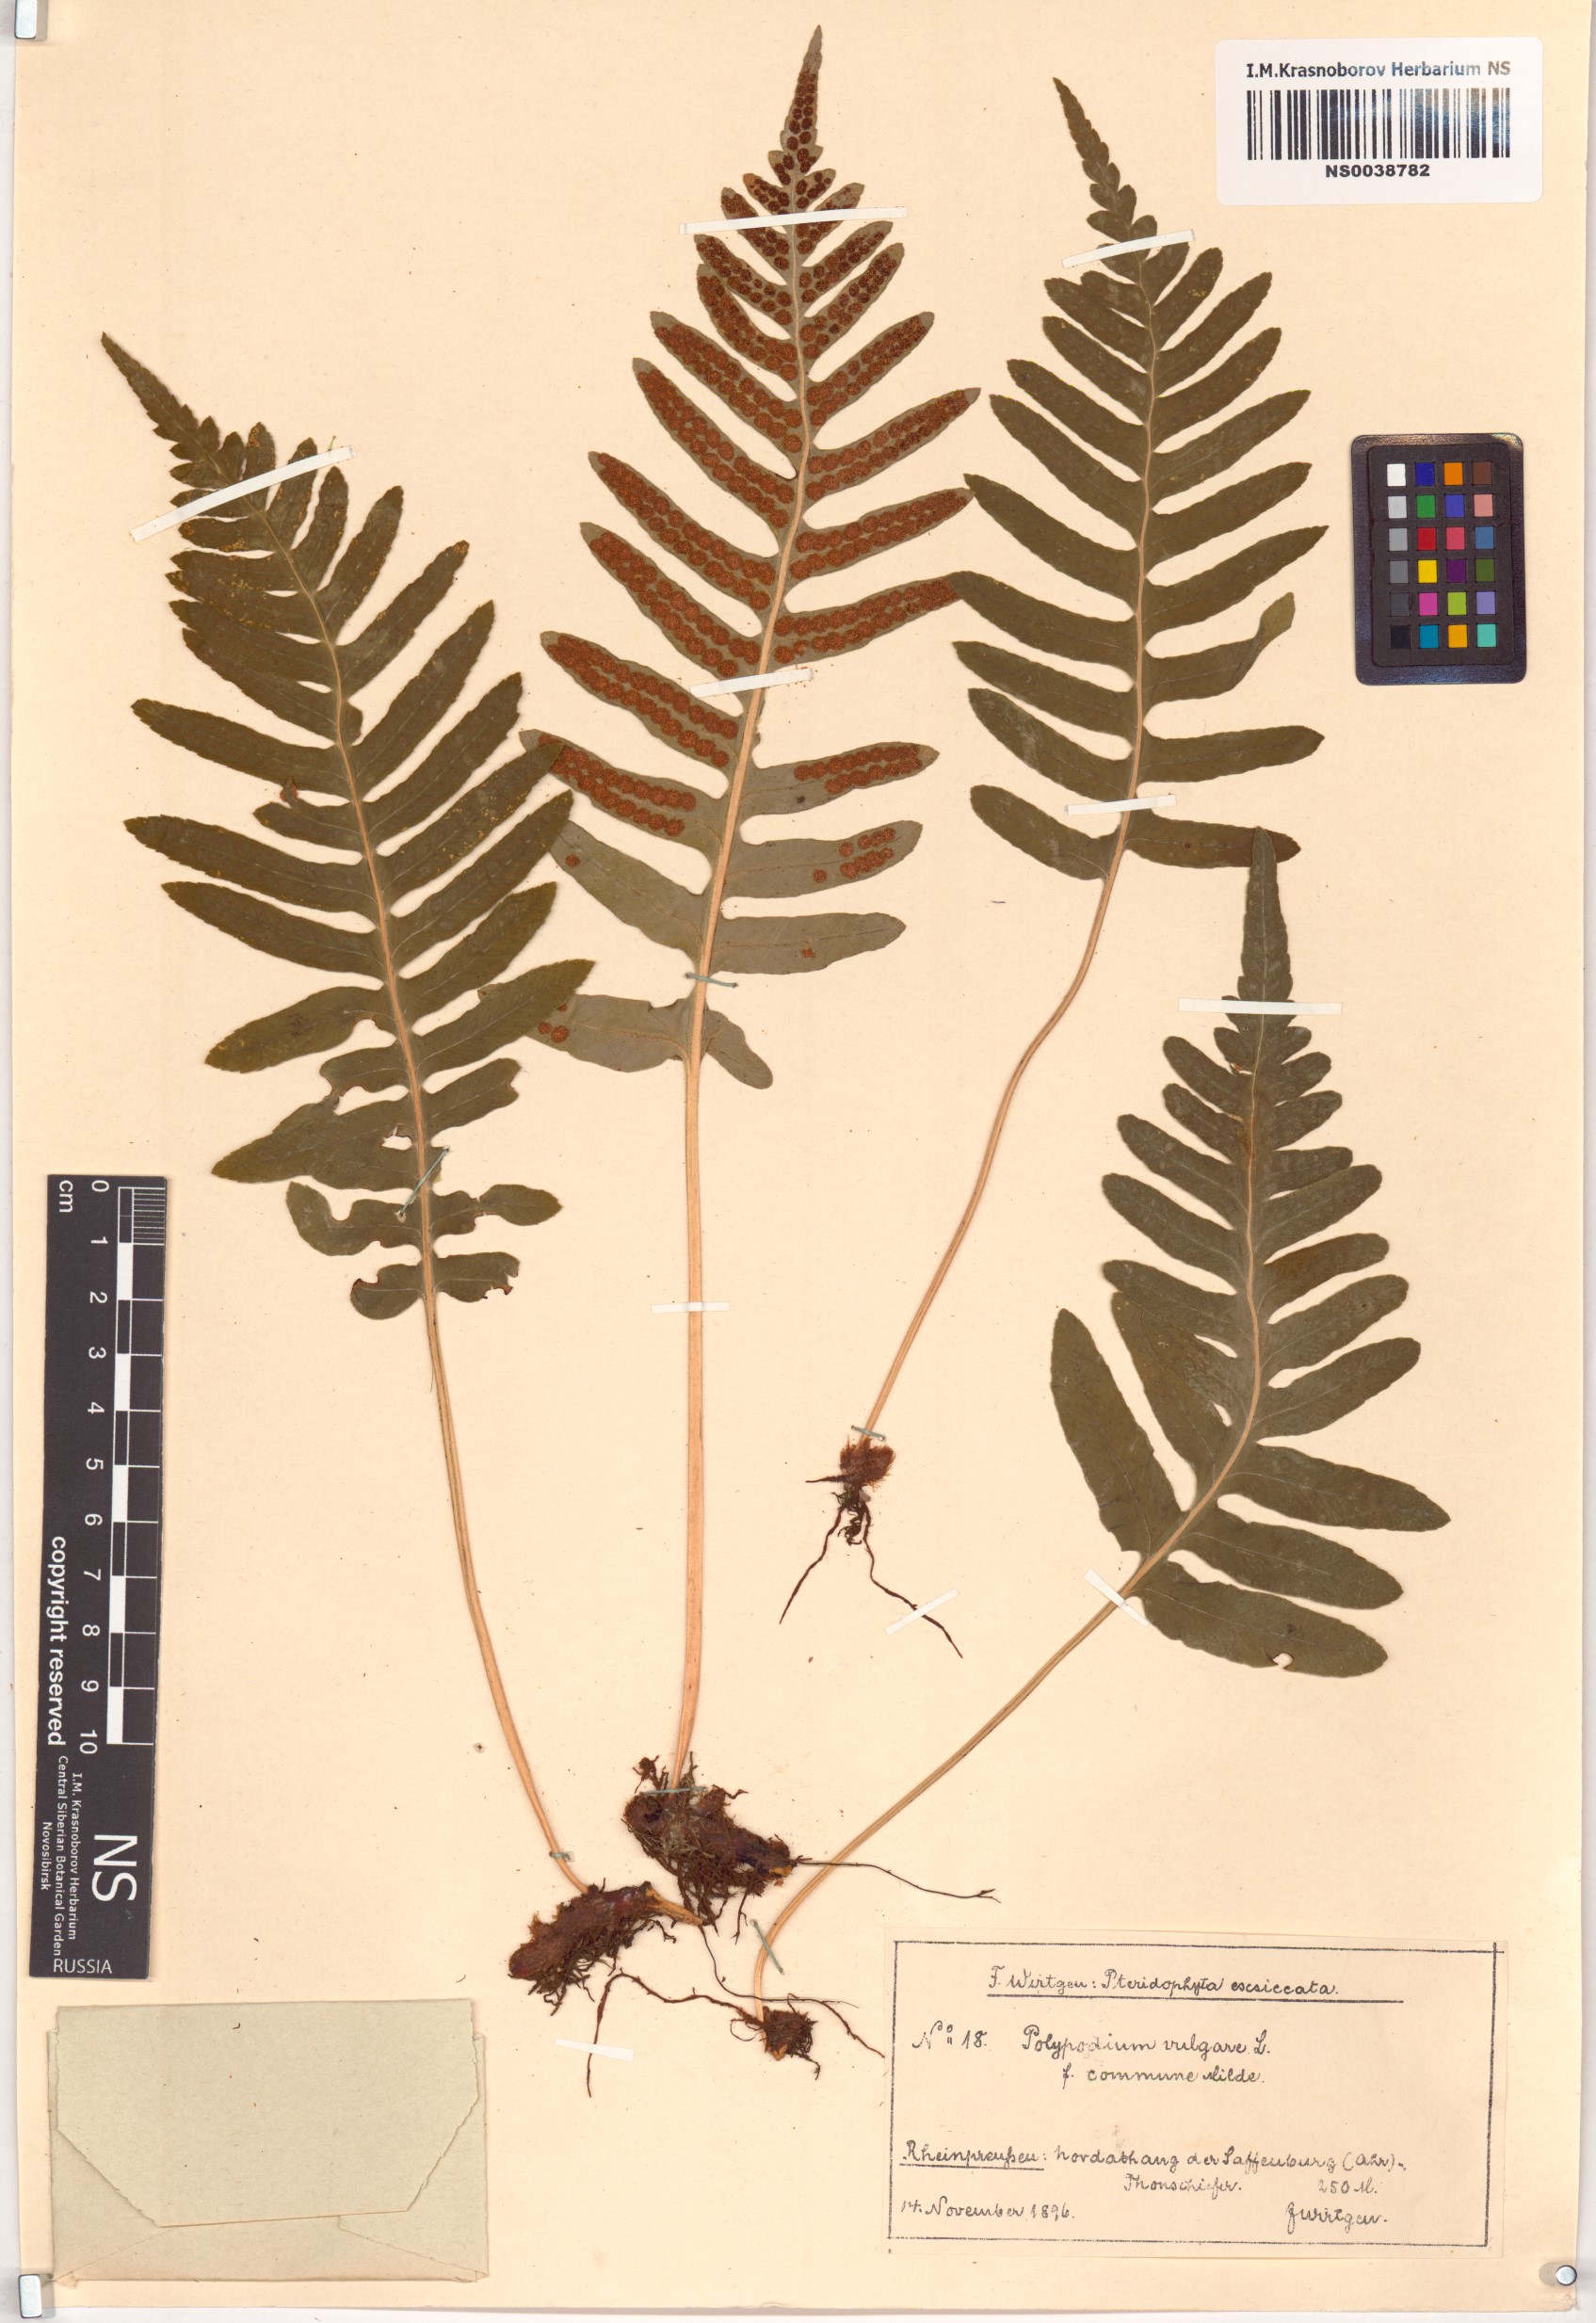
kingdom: Plantae
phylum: Tracheophyta
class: Polypodiopsida
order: Polypodiales
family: Polypodiaceae
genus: Polypodium
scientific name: Polypodium glycyrrhiza
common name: Licorice fern
